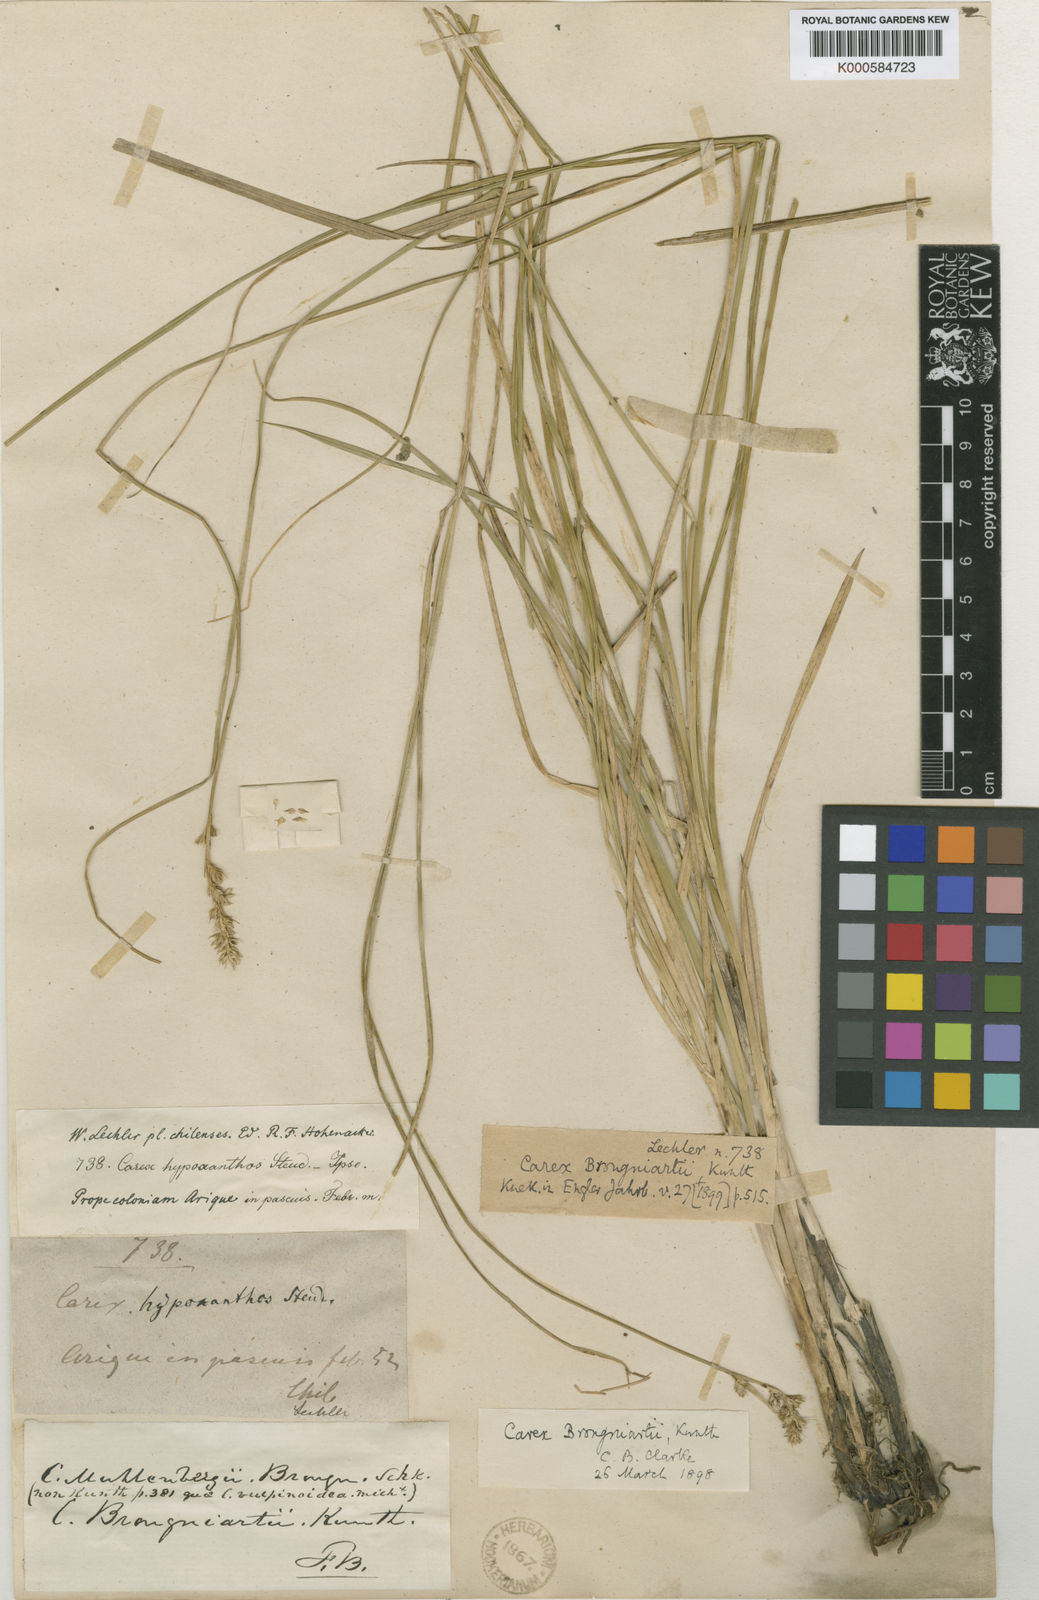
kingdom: Plantae
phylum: Tracheophyta
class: Liliopsida
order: Poales
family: Cyperaceae
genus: Carex
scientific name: Carex brongniartii
